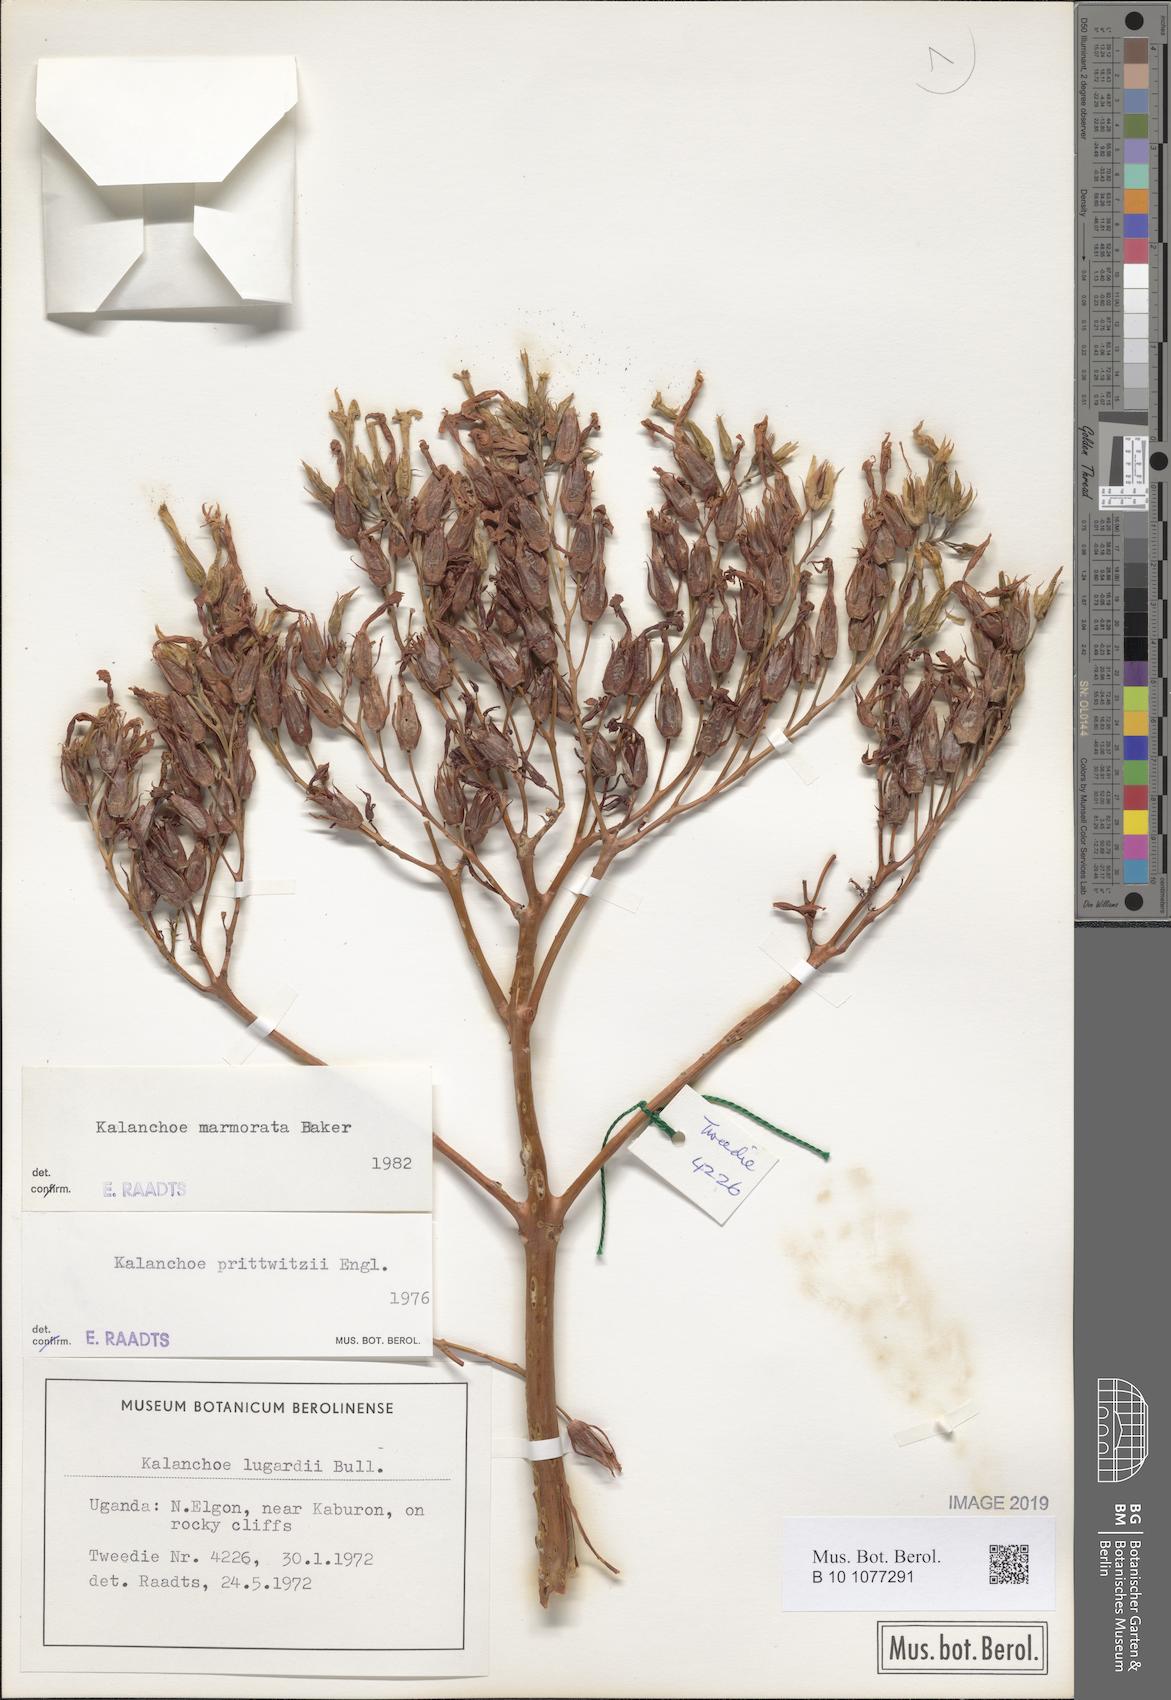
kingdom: Plantae
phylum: Tracheophyta
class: Magnoliopsida
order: Saxifragales
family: Crassulaceae
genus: Kalanchoe
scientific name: Kalanchoe marmorata
